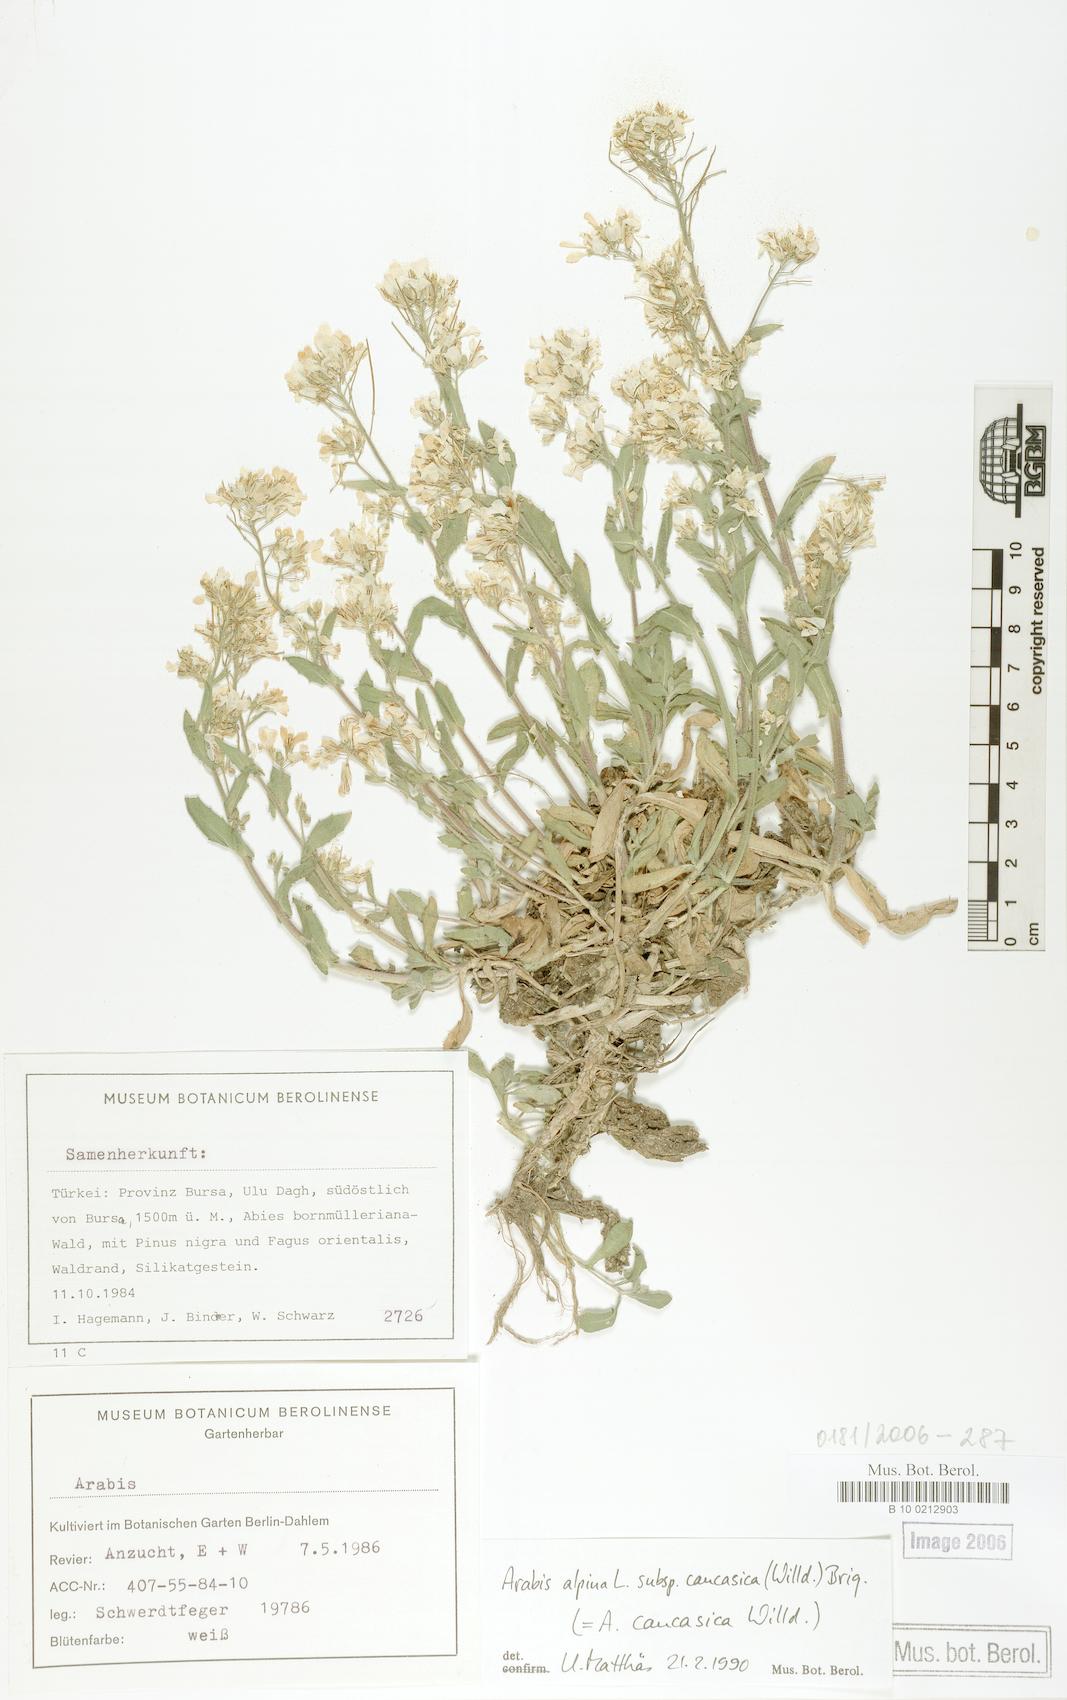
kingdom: Plantae
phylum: Tracheophyta
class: Magnoliopsida
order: Brassicales
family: Brassicaceae
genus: Arabis
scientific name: Arabis caucasica
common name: Gray rockcress
